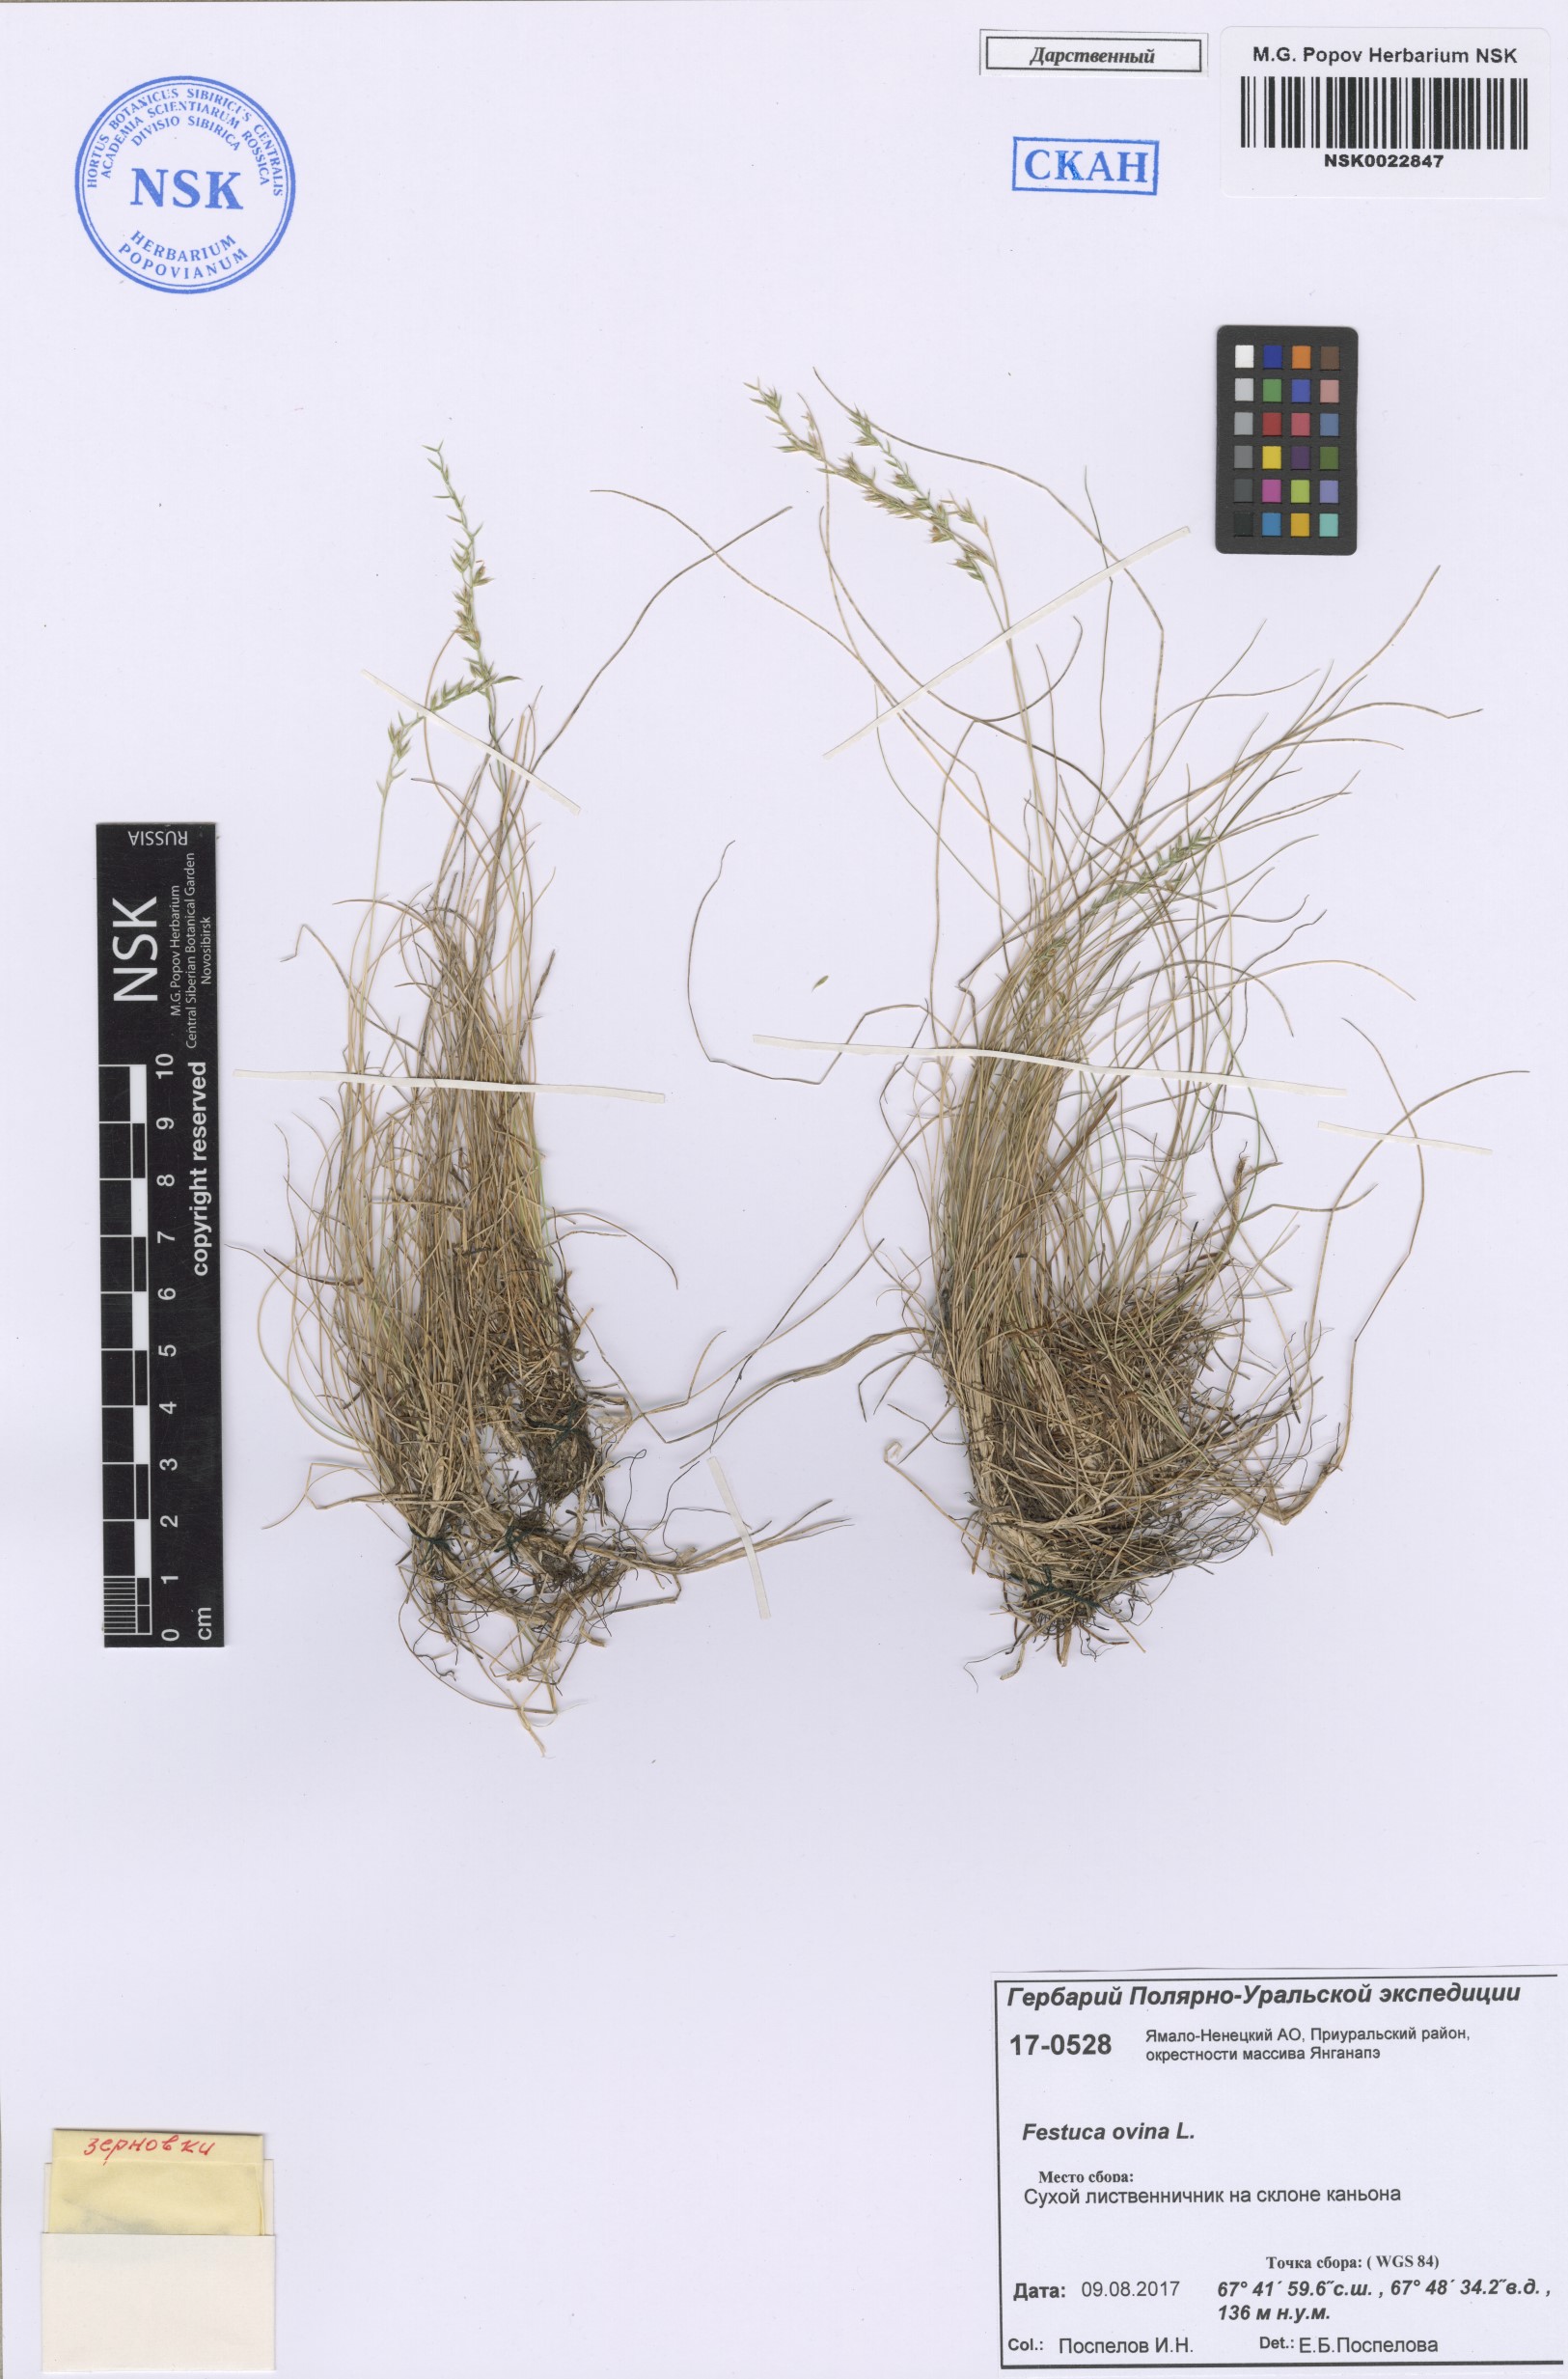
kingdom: Plantae
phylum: Tracheophyta
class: Liliopsida
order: Poales
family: Poaceae
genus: Festuca
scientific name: Festuca ovina
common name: Sheep fescue
